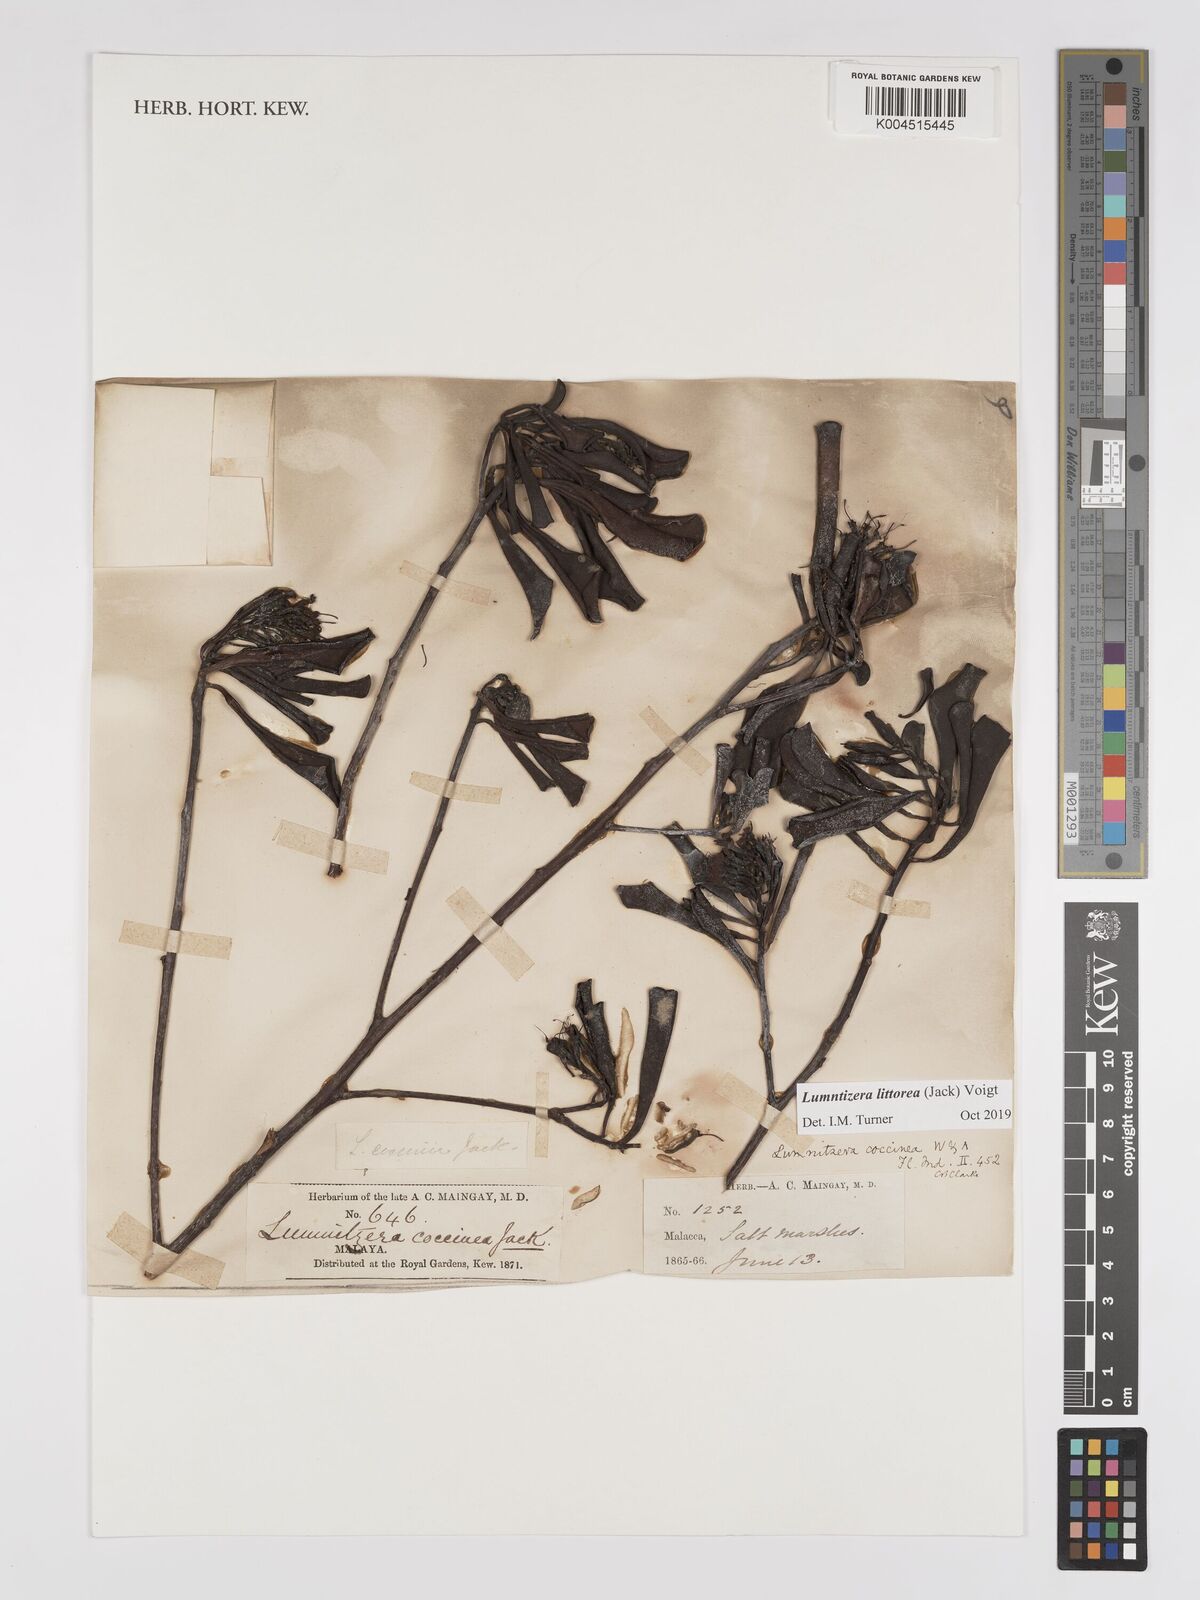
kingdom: Plantae
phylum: Tracheophyta
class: Magnoliopsida
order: Myrtales
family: Combretaceae
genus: Lumnitzera
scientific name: Lumnitzera littorea
